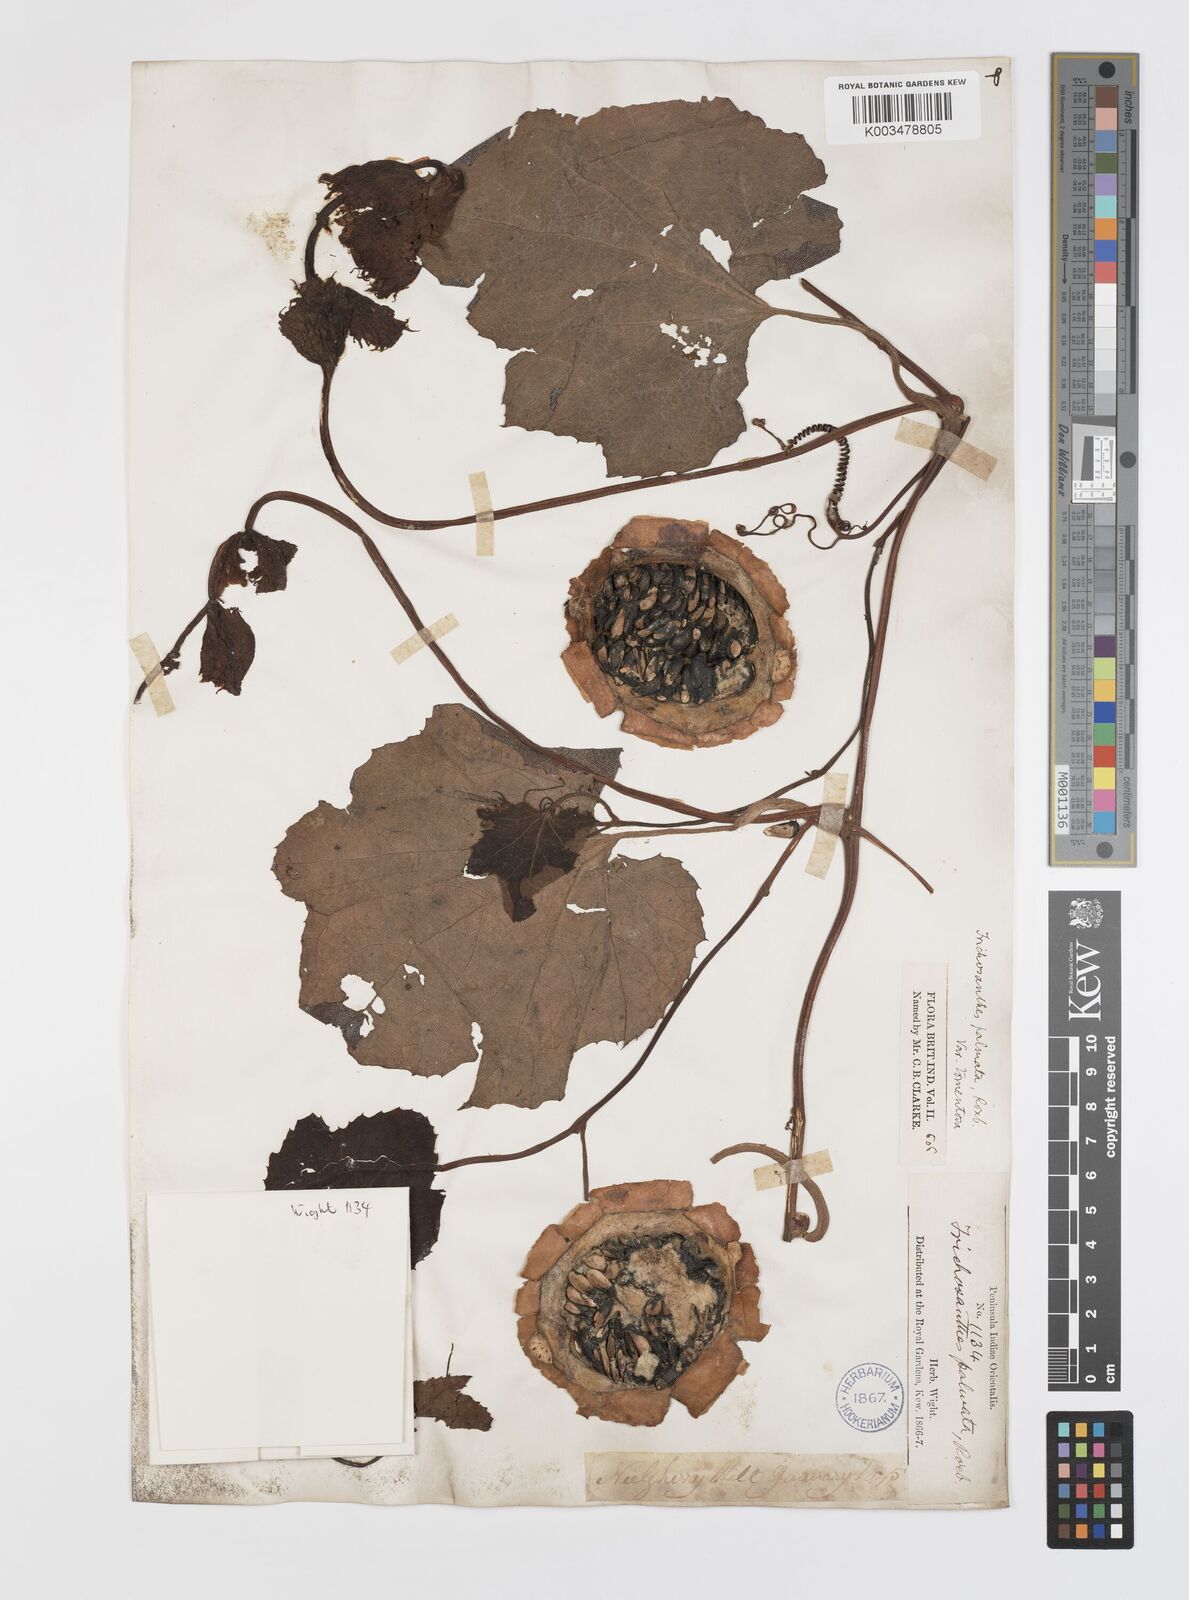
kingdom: Plantae
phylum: Tracheophyta
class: Magnoliopsida
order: Cucurbitales
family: Cucurbitaceae
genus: Trichosanthes
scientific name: Trichosanthes anaimalaiensis
